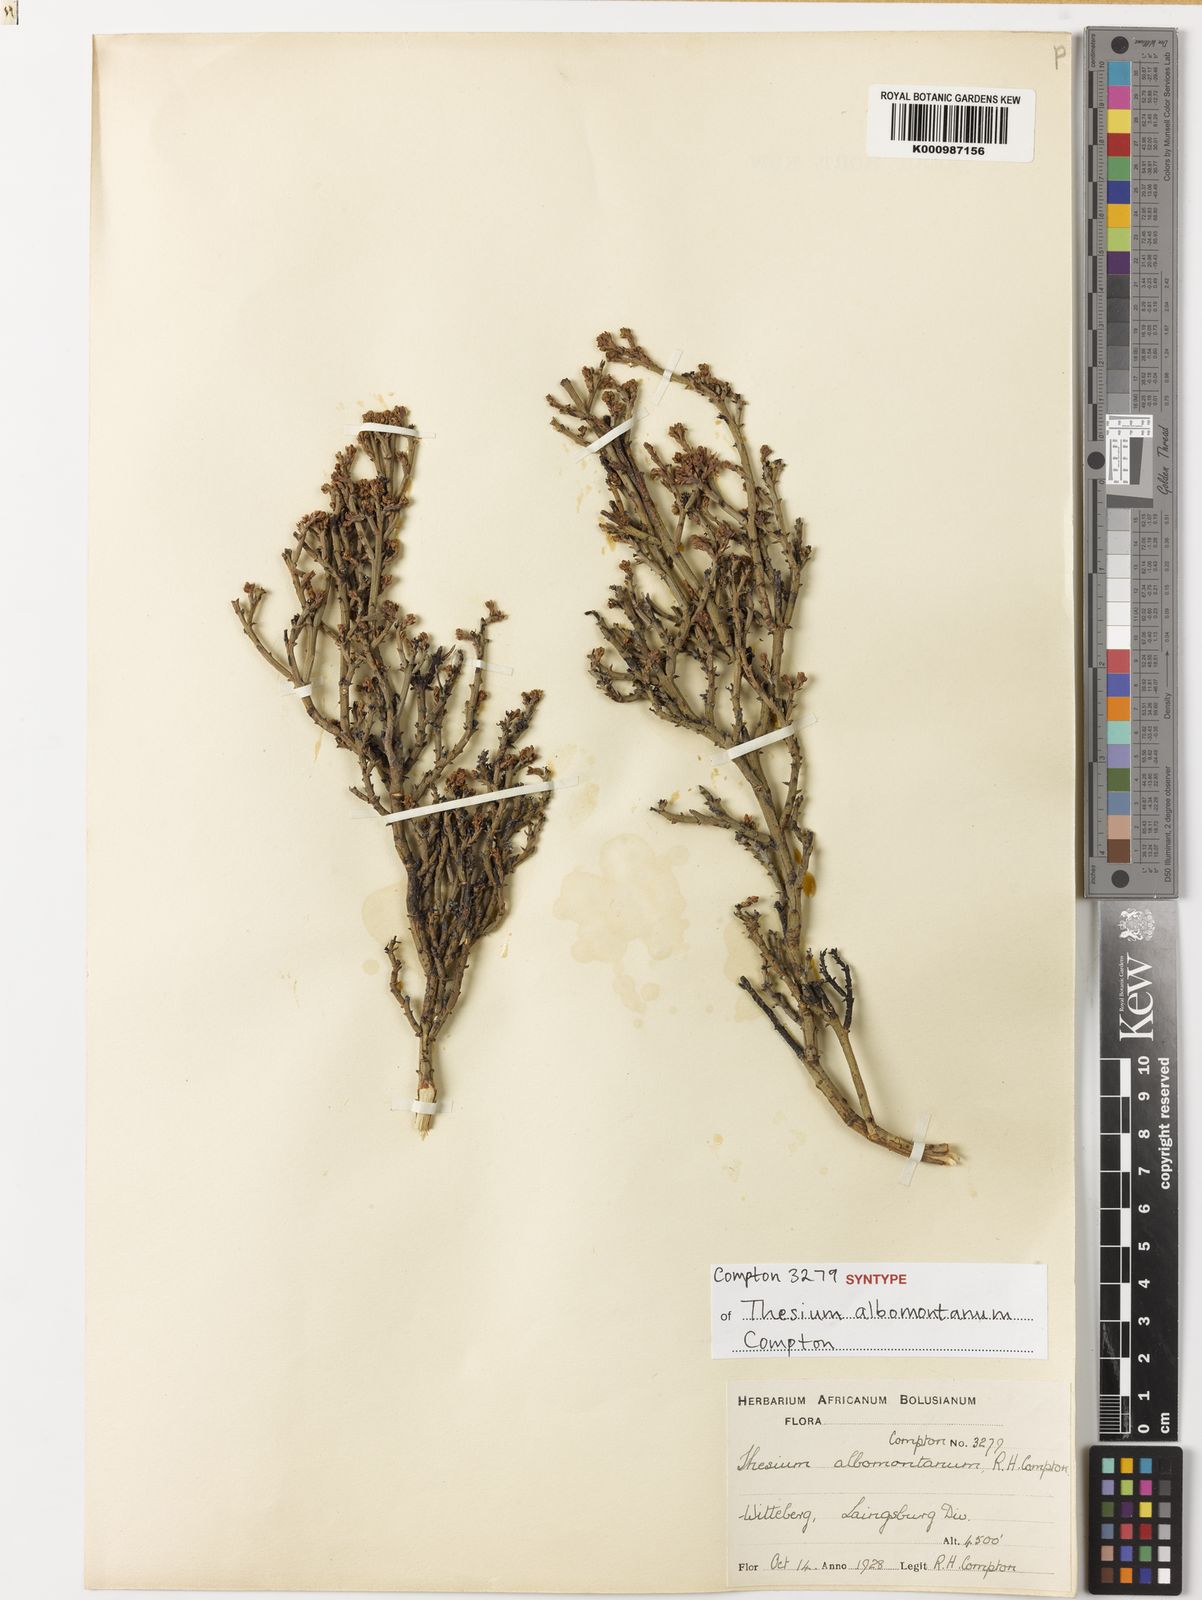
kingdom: Plantae
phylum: Tracheophyta
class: Magnoliopsida
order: Santalales
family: Thesiaceae
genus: Thesium
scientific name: Thesium albomontanum
